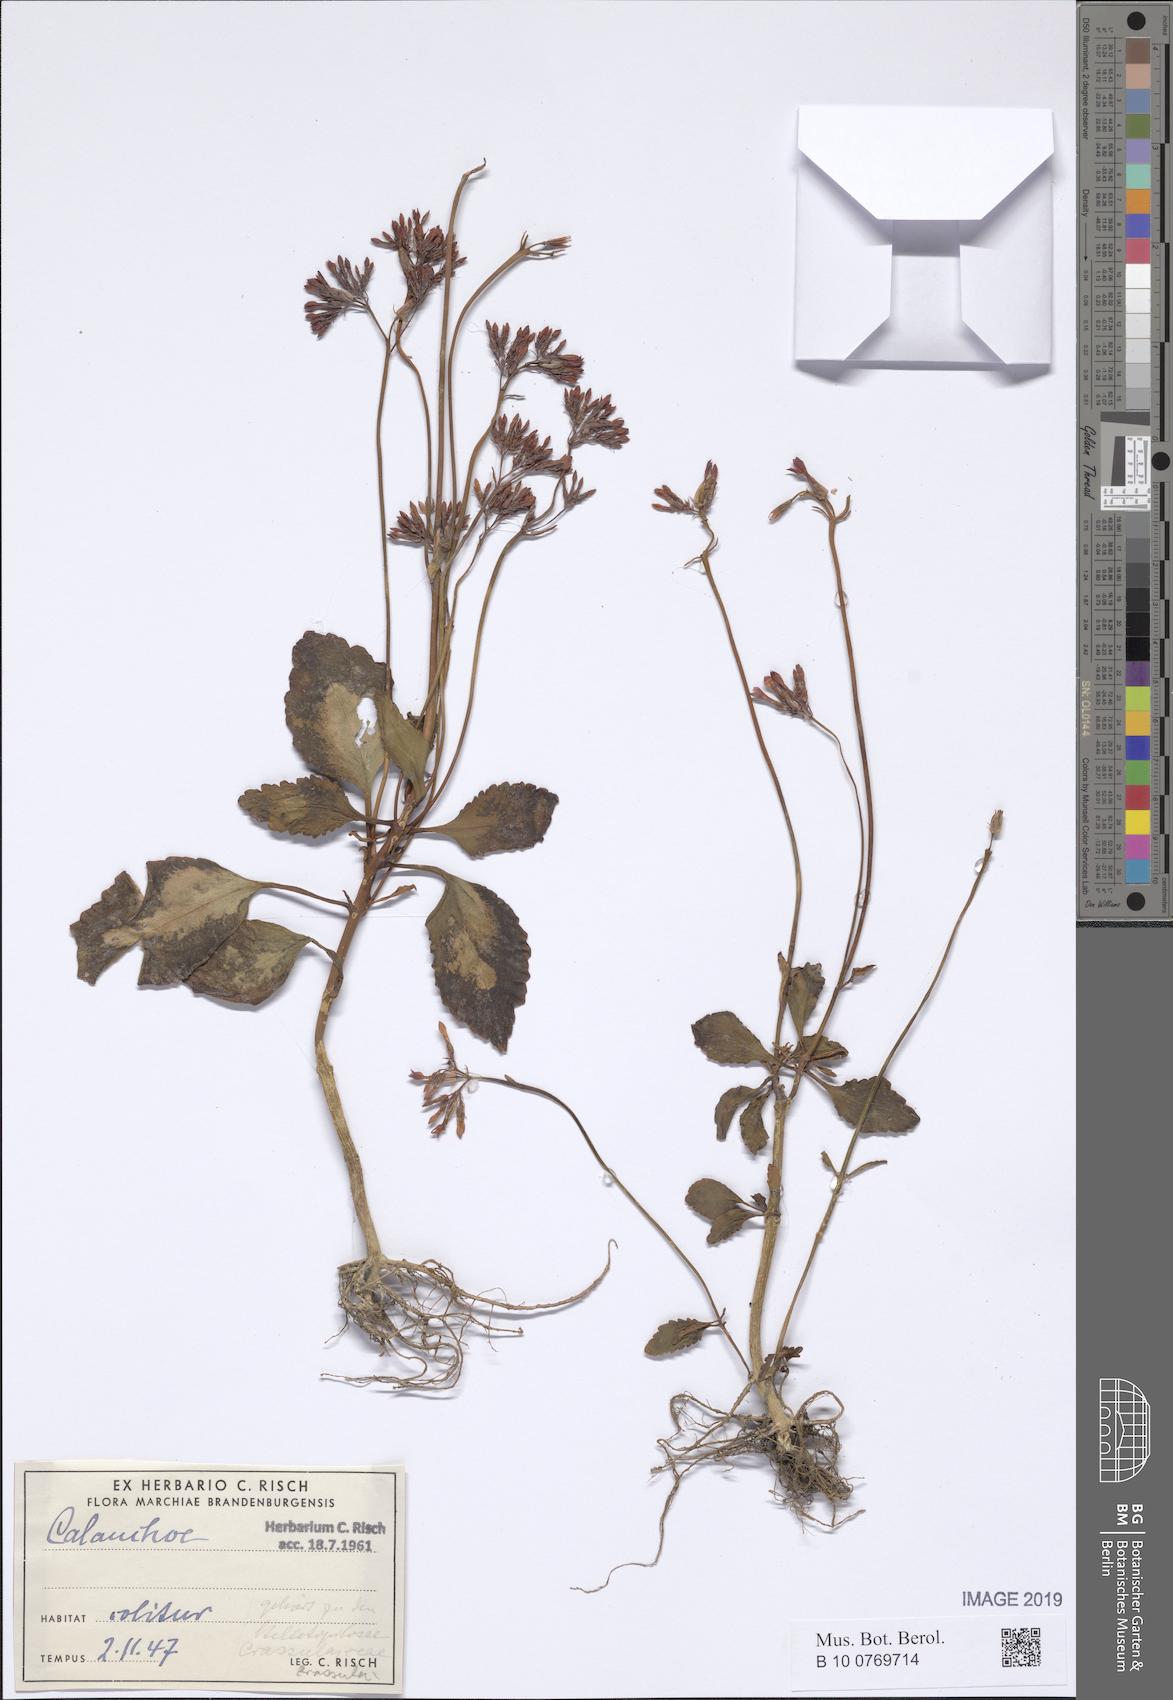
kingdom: Plantae
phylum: Tracheophyta
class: Magnoliopsida
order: Saxifragales
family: Crassulaceae
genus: Kalanchoe
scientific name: Kalanchoe
